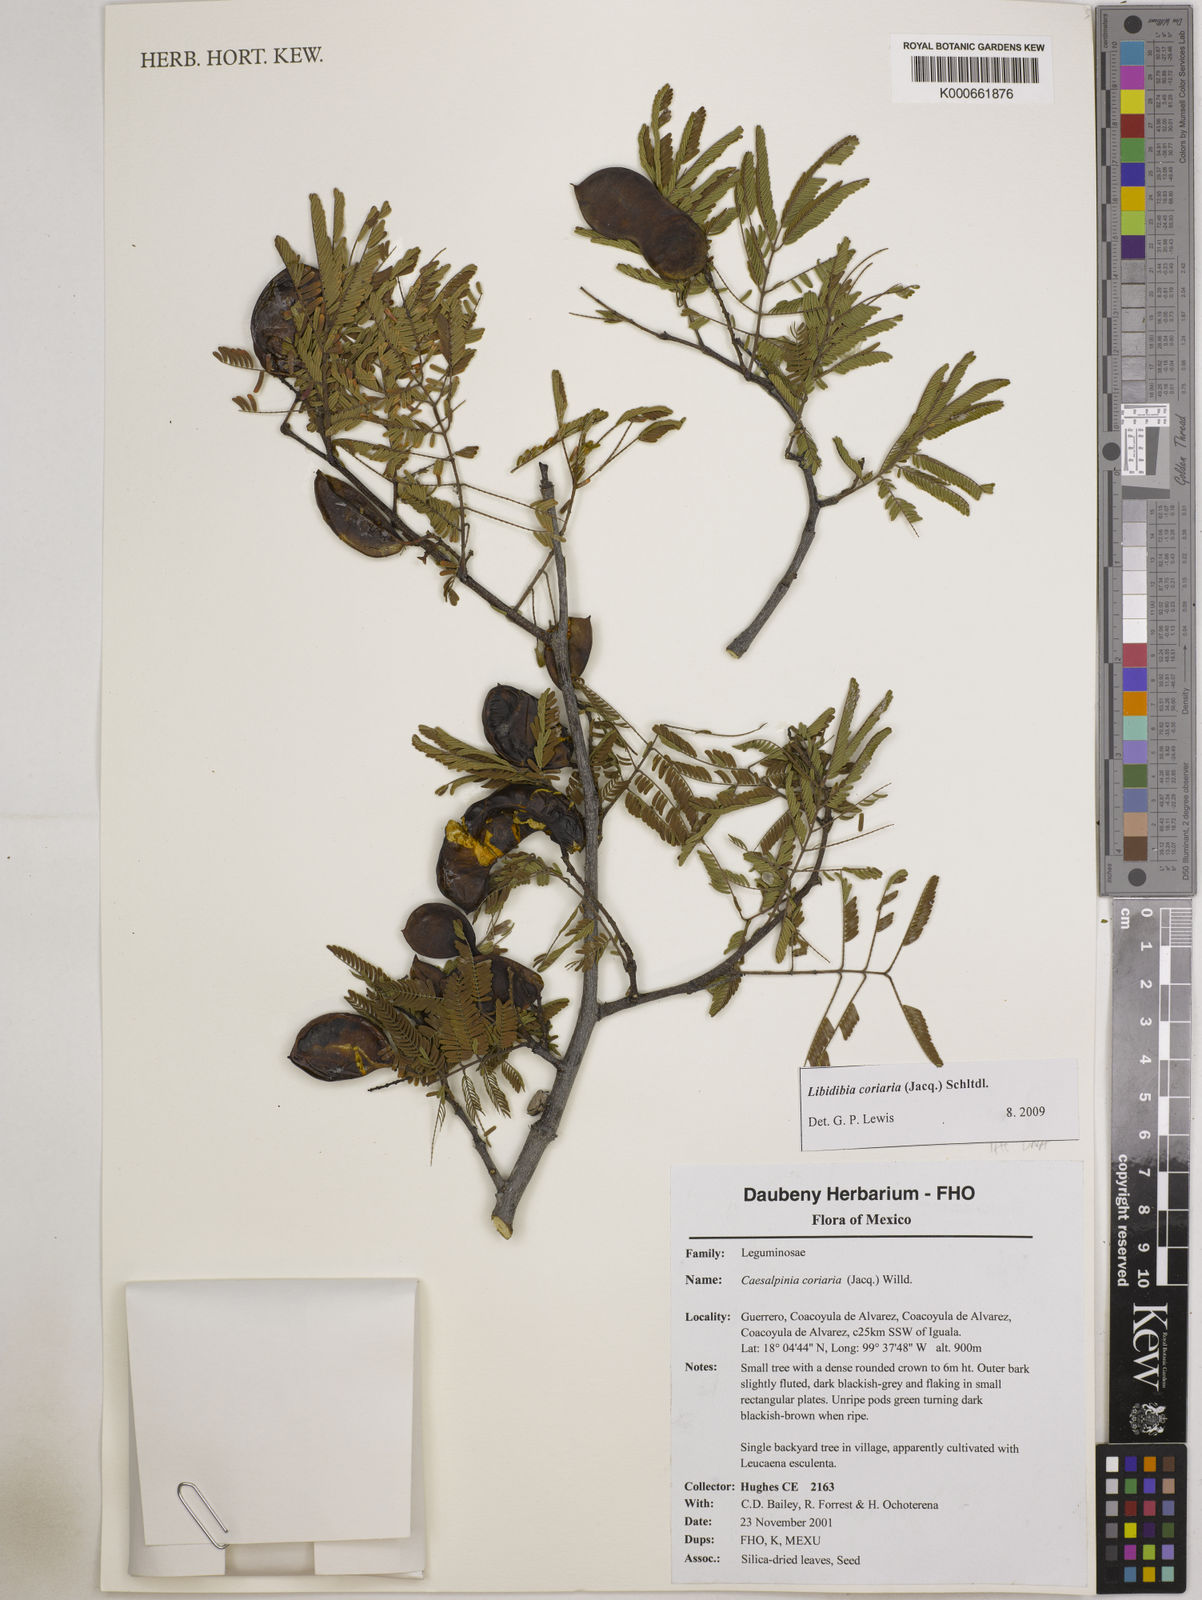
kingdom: Plantae
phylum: Tracheophyta
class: Magnoliopsida
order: Fabales
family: Fabaceae
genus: Libidibia
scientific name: Libidibia coriaria
